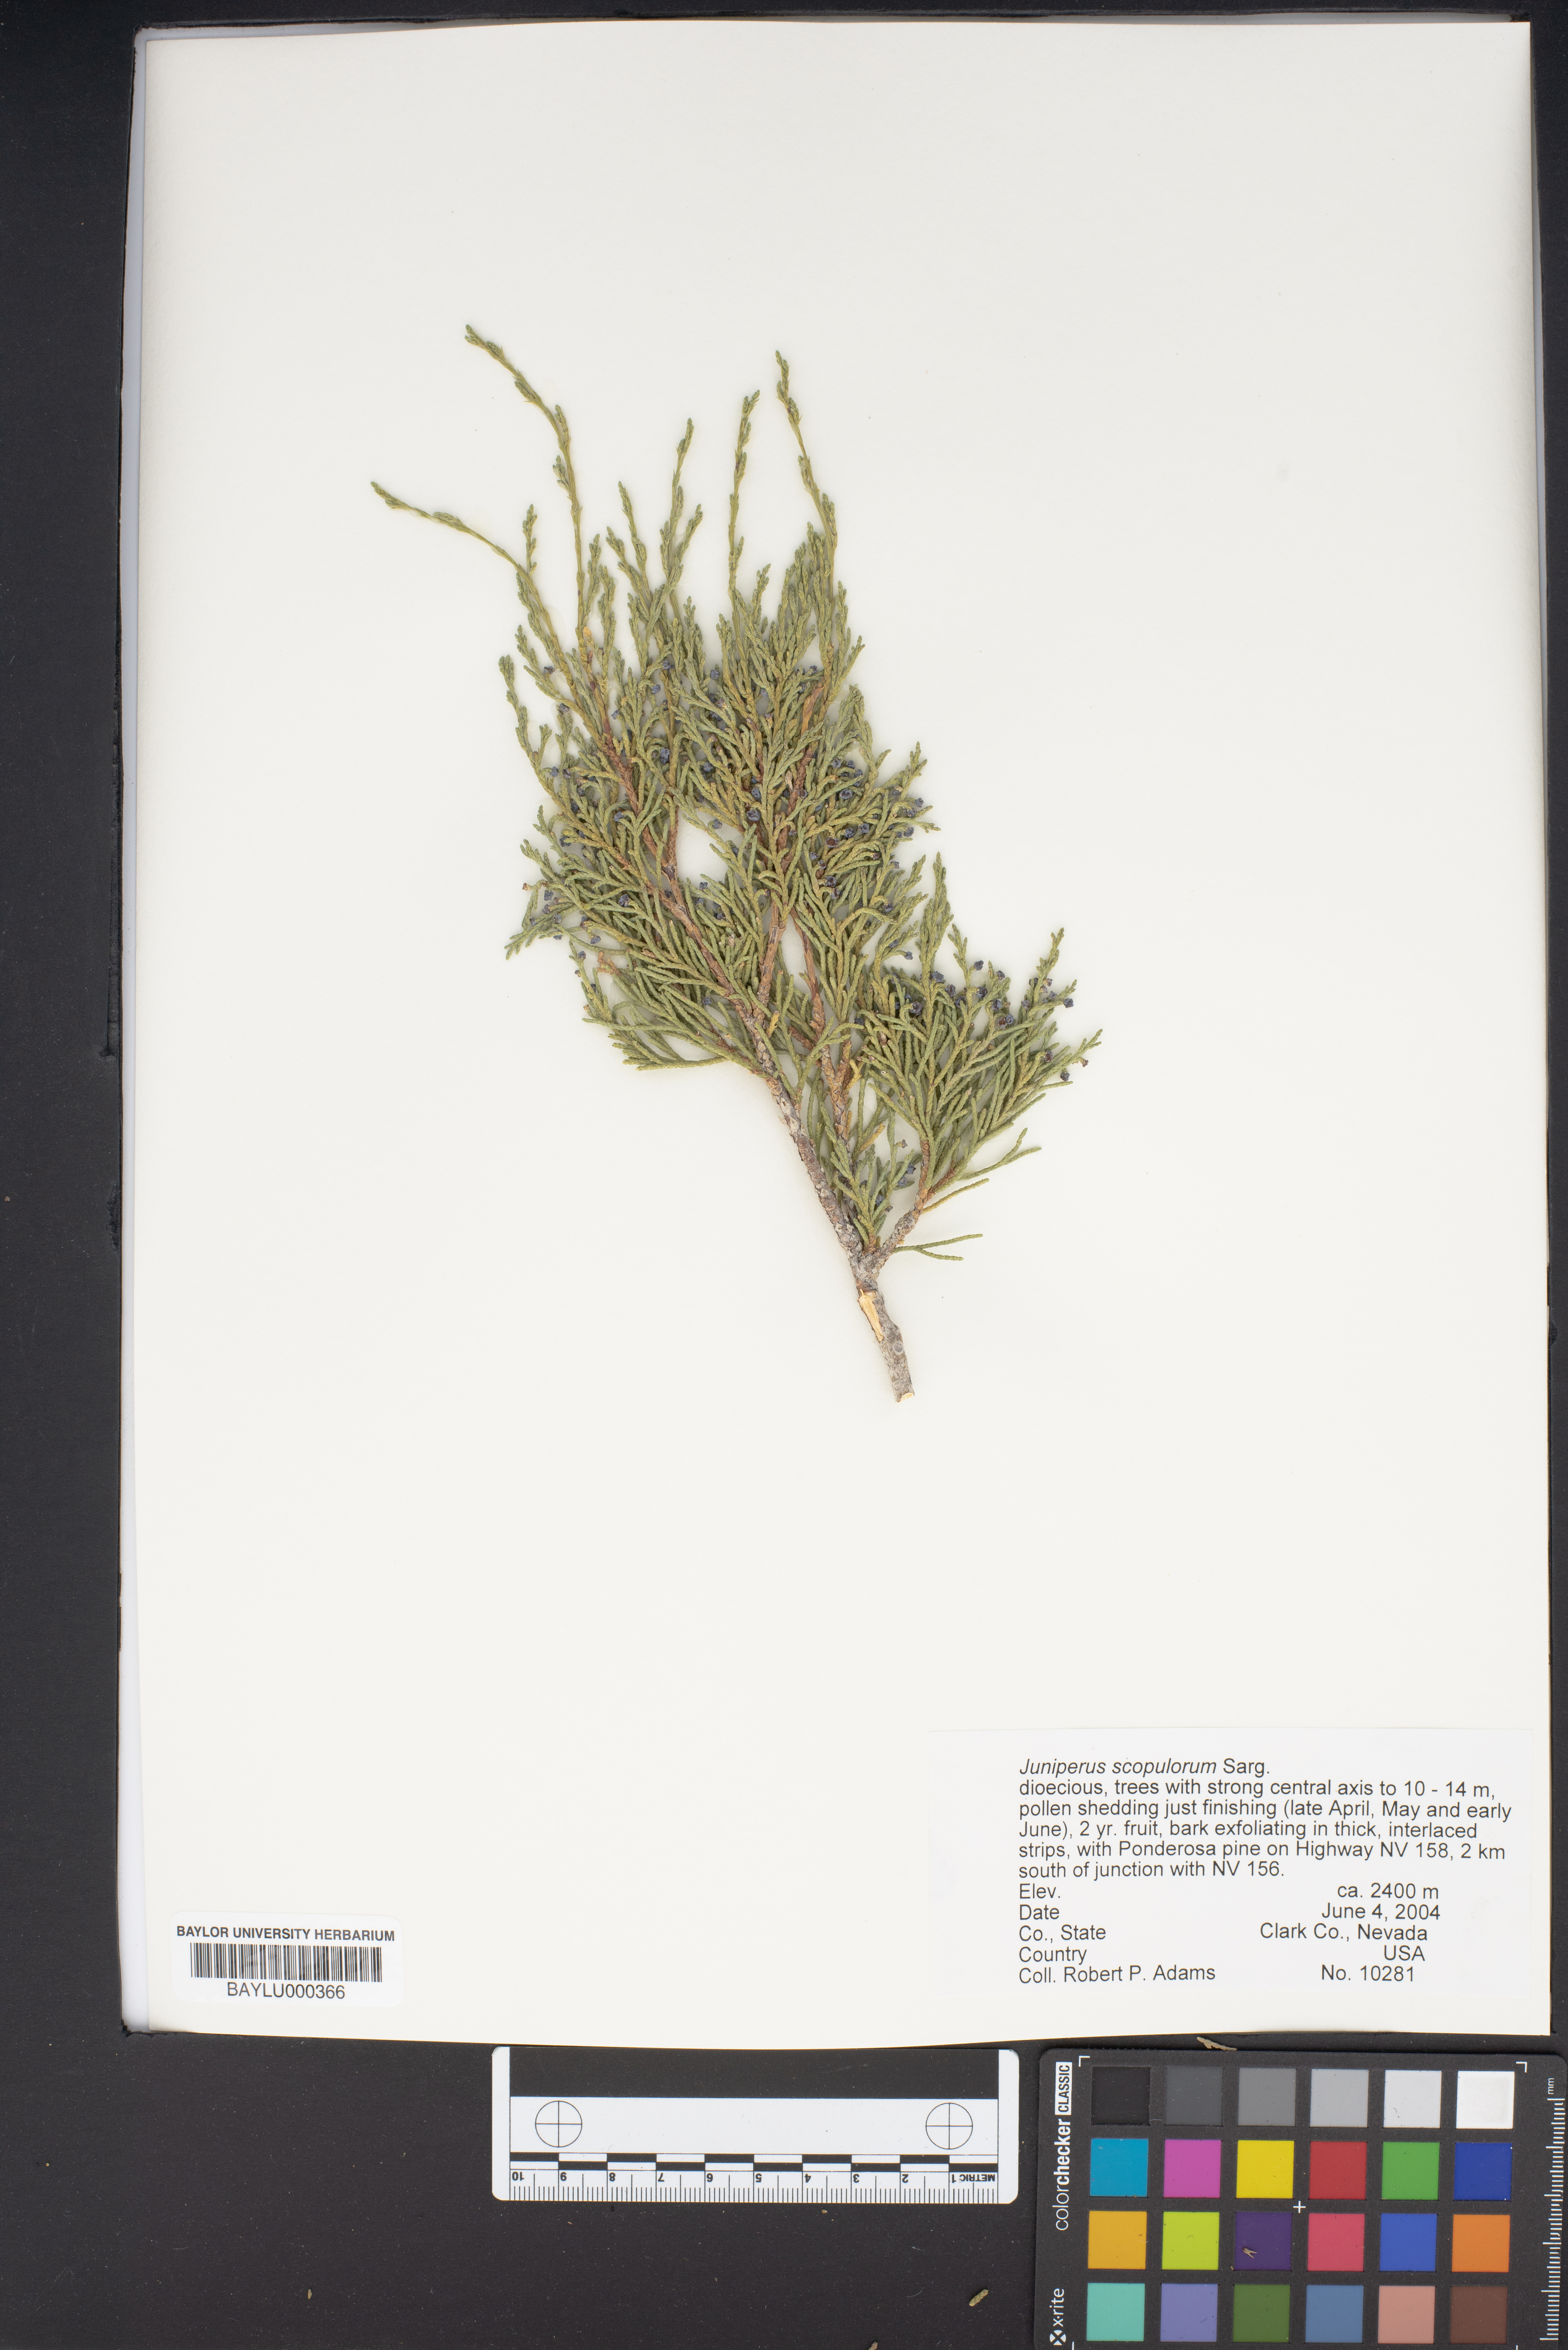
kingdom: Plantae
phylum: Tracheophyta
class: Pinopsida
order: Pinales
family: Cupressaceae
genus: Juniperus
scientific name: Juniperus scopulorum
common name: Rocky mountain juniper
